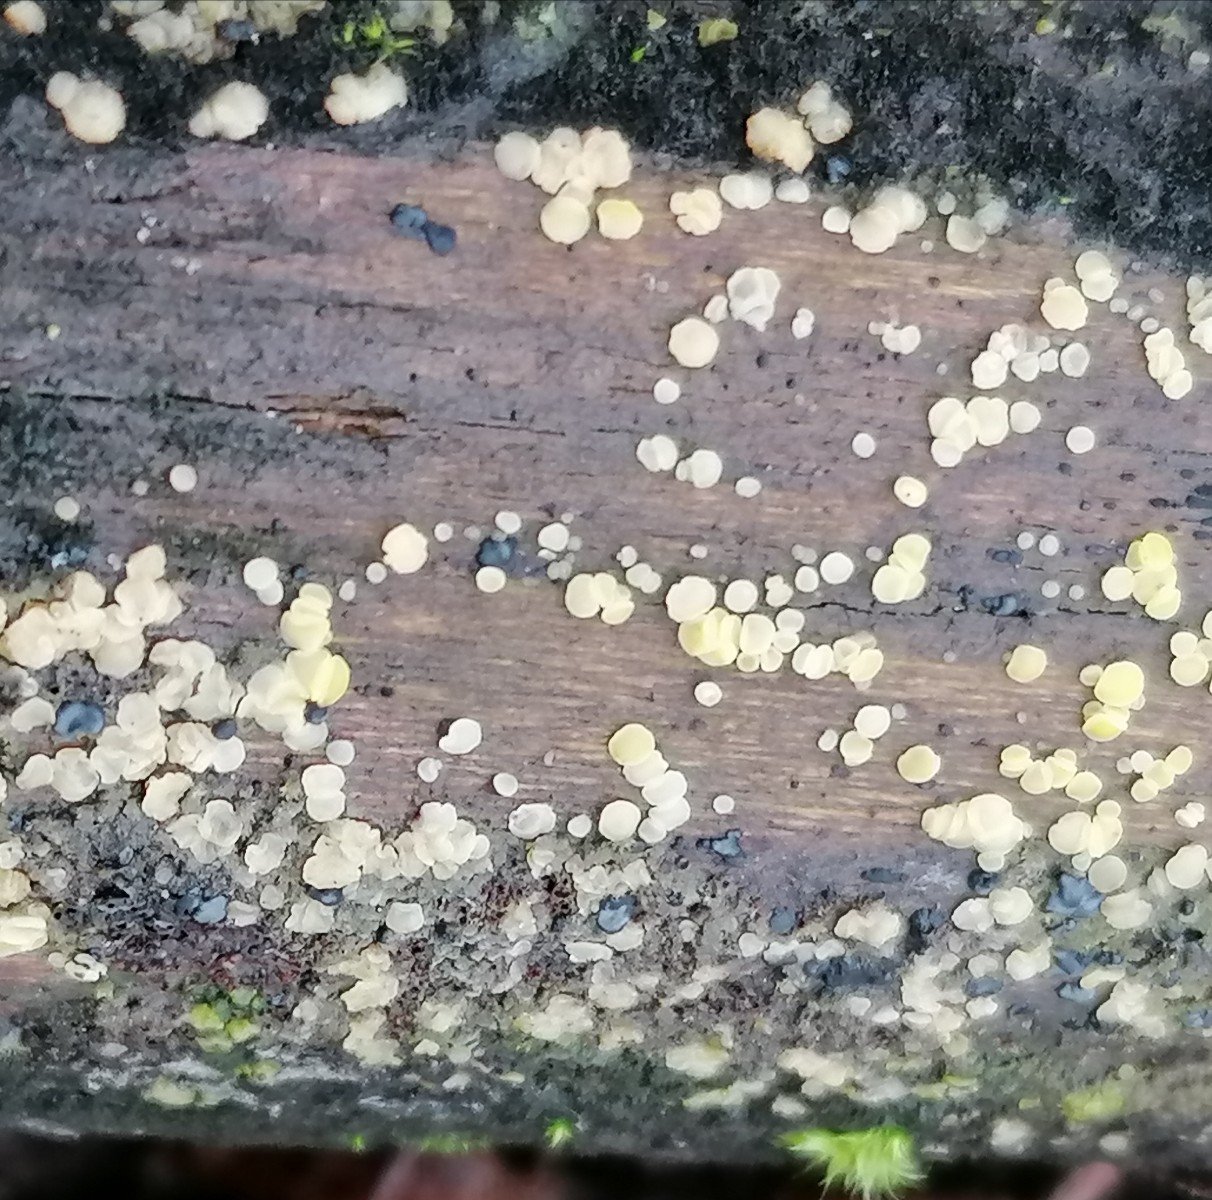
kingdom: Fungi
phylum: Ascomycota
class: Leotiomycetes
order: Helotiales
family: Helotiaceae
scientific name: Helotiaceae
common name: stilkskivefamilien
